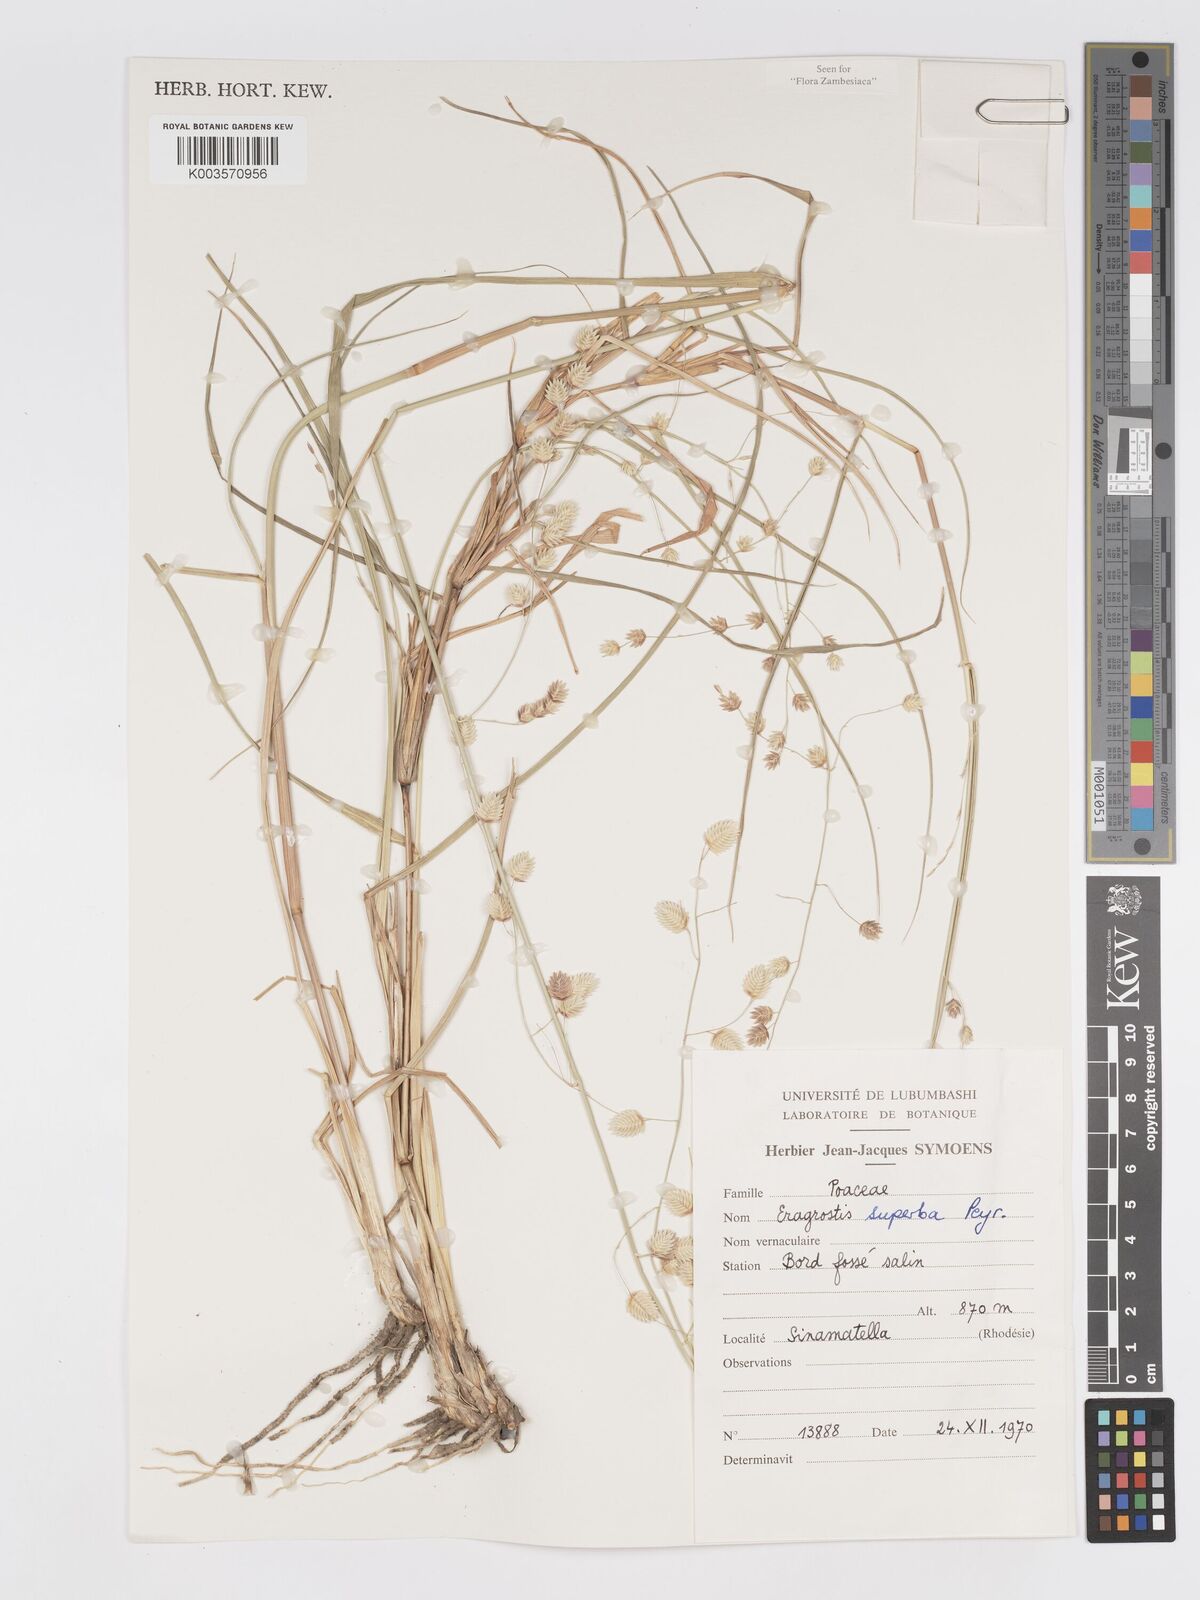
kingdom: Plantae
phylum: Tracheophyta
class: Liliopsida
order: Poales
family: Poaceae
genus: Eragrostis
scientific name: Eragrostis superba
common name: Wilman lovegrass
